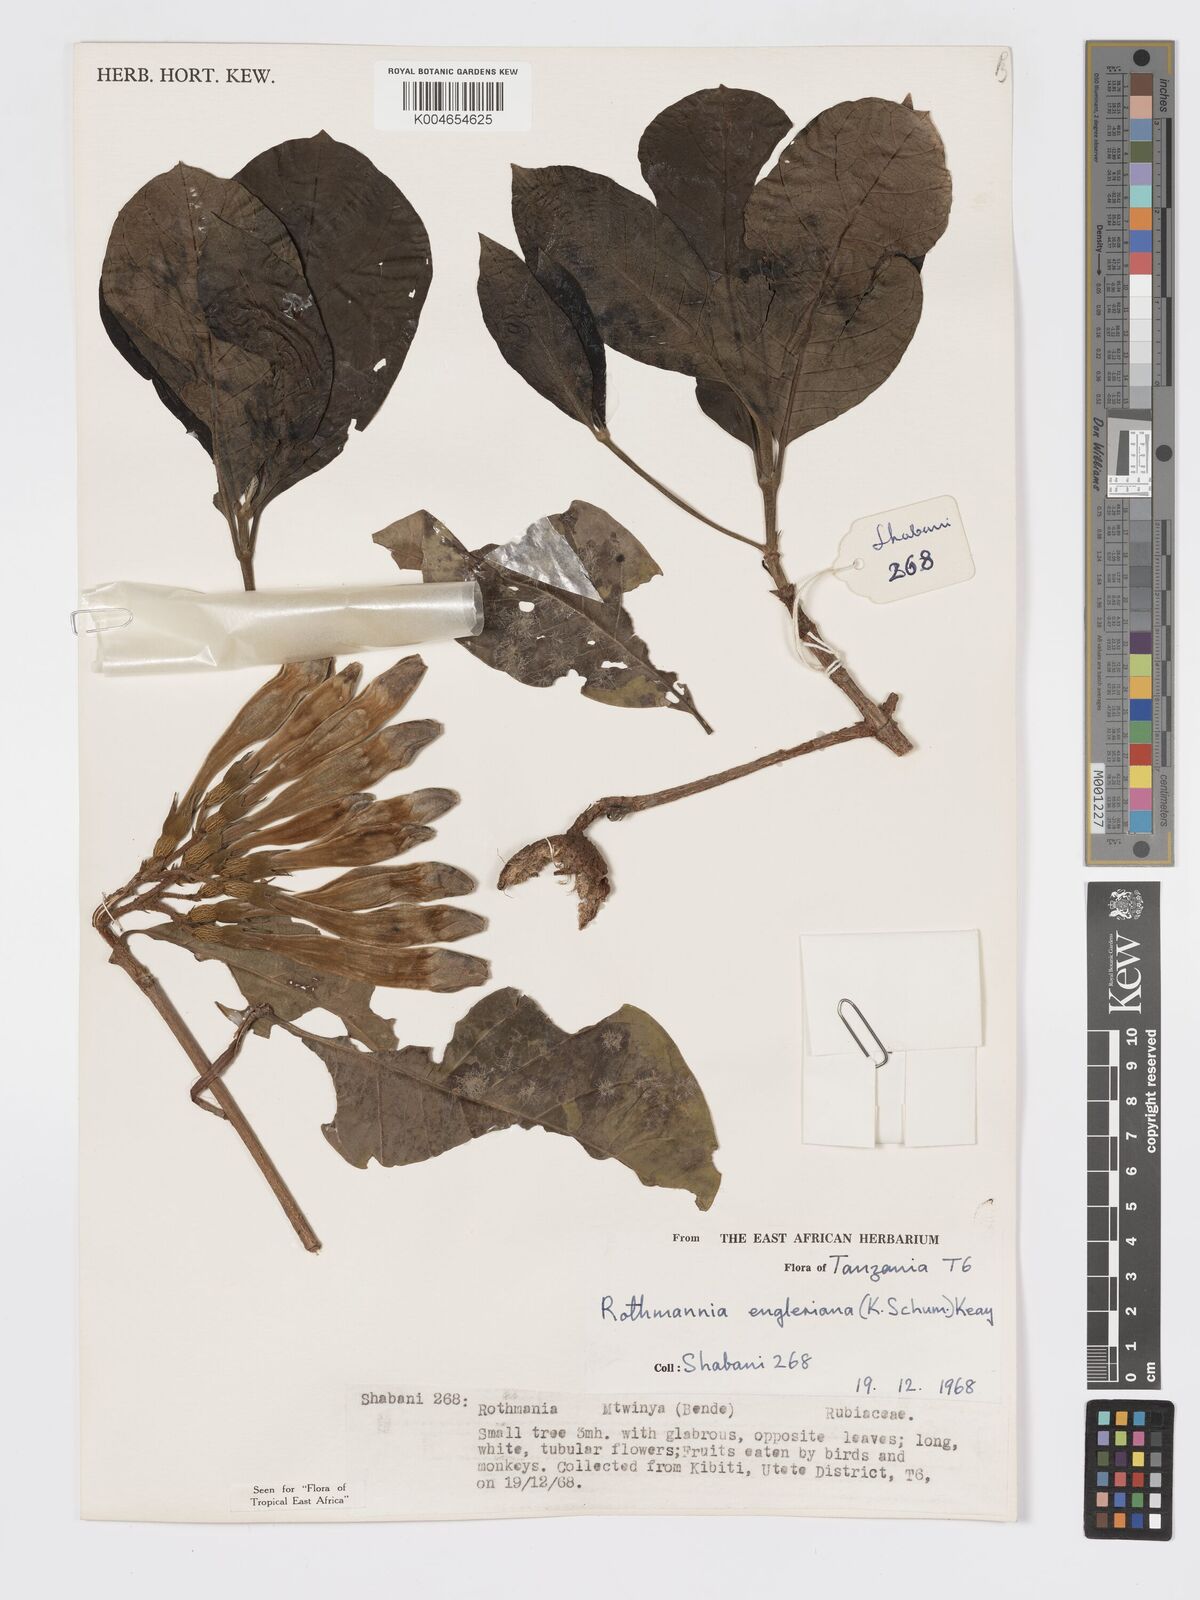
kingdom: Plantae
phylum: Tracheophyta
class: Magnoliopsida
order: Gentianales
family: Rubiaceae
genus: Rothmannia
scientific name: Rothmannia engleriana
